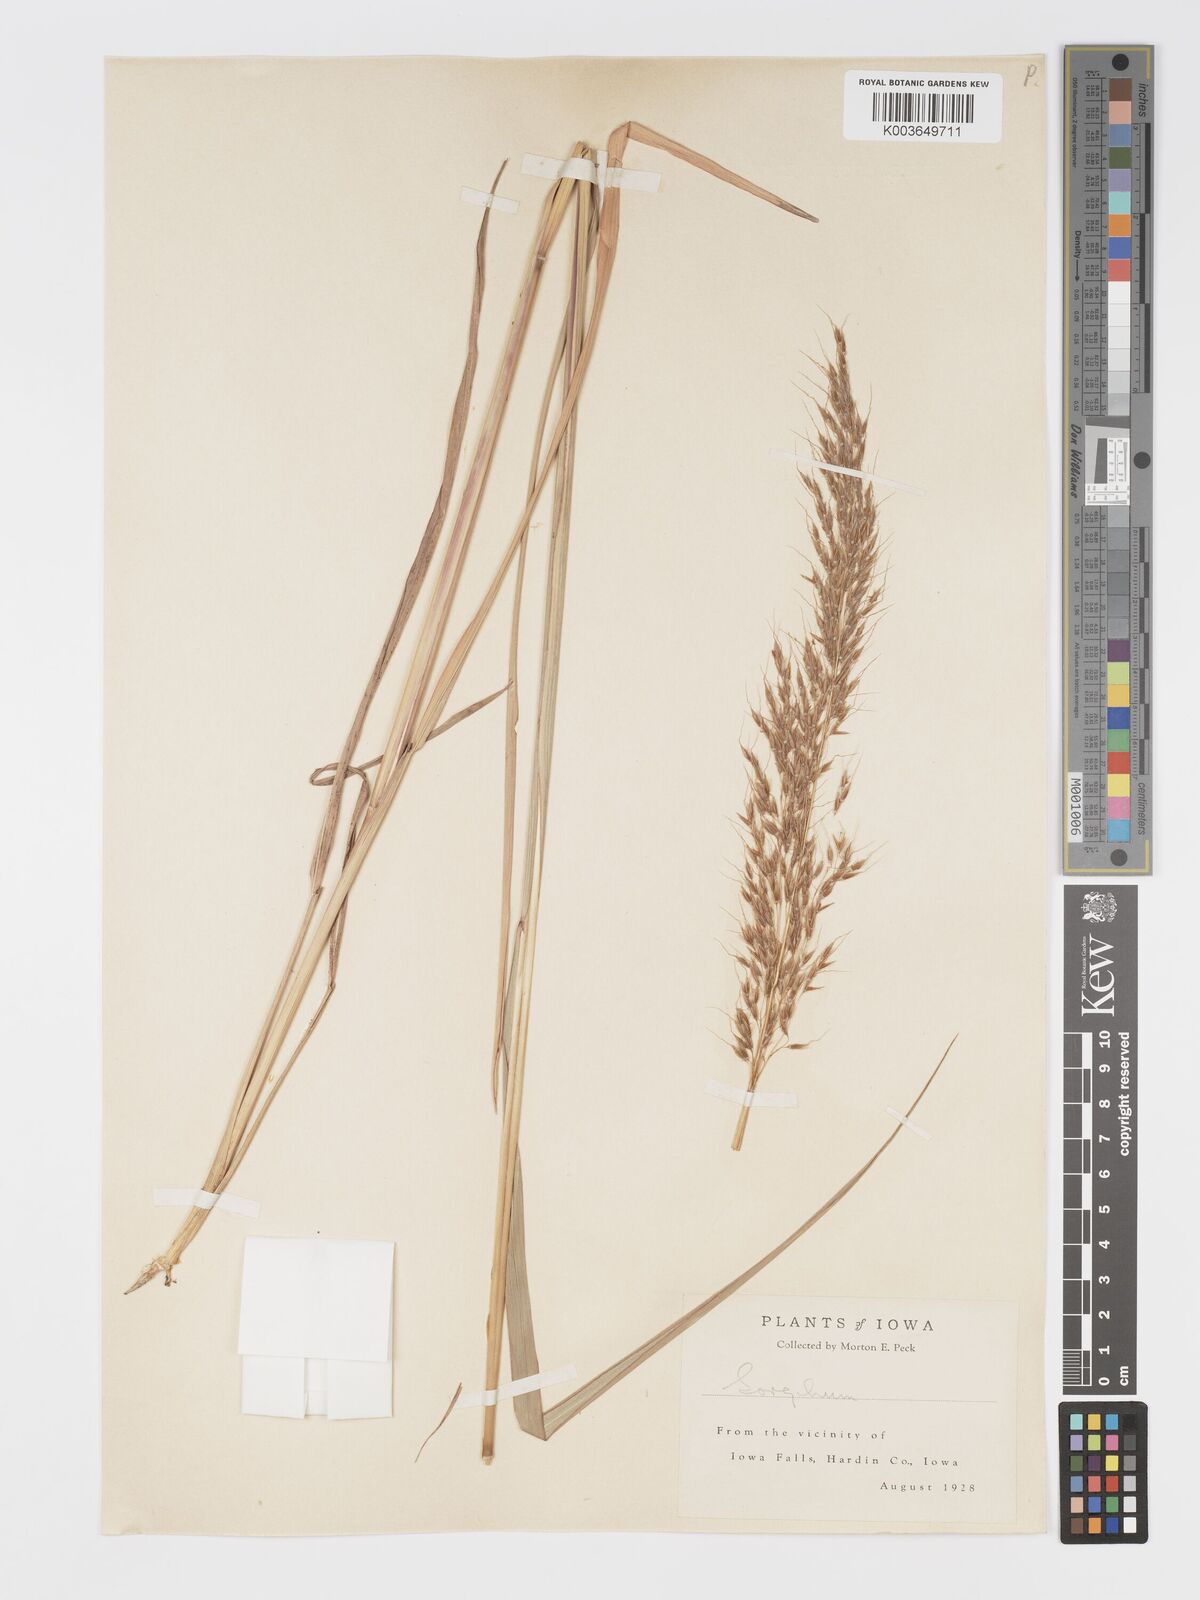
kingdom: Plantae
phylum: Tracheophyta
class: Liliopsida
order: Poales
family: Poaceae
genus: Sorghastrum
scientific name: Sorghastrum nutans
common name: Indian grass
